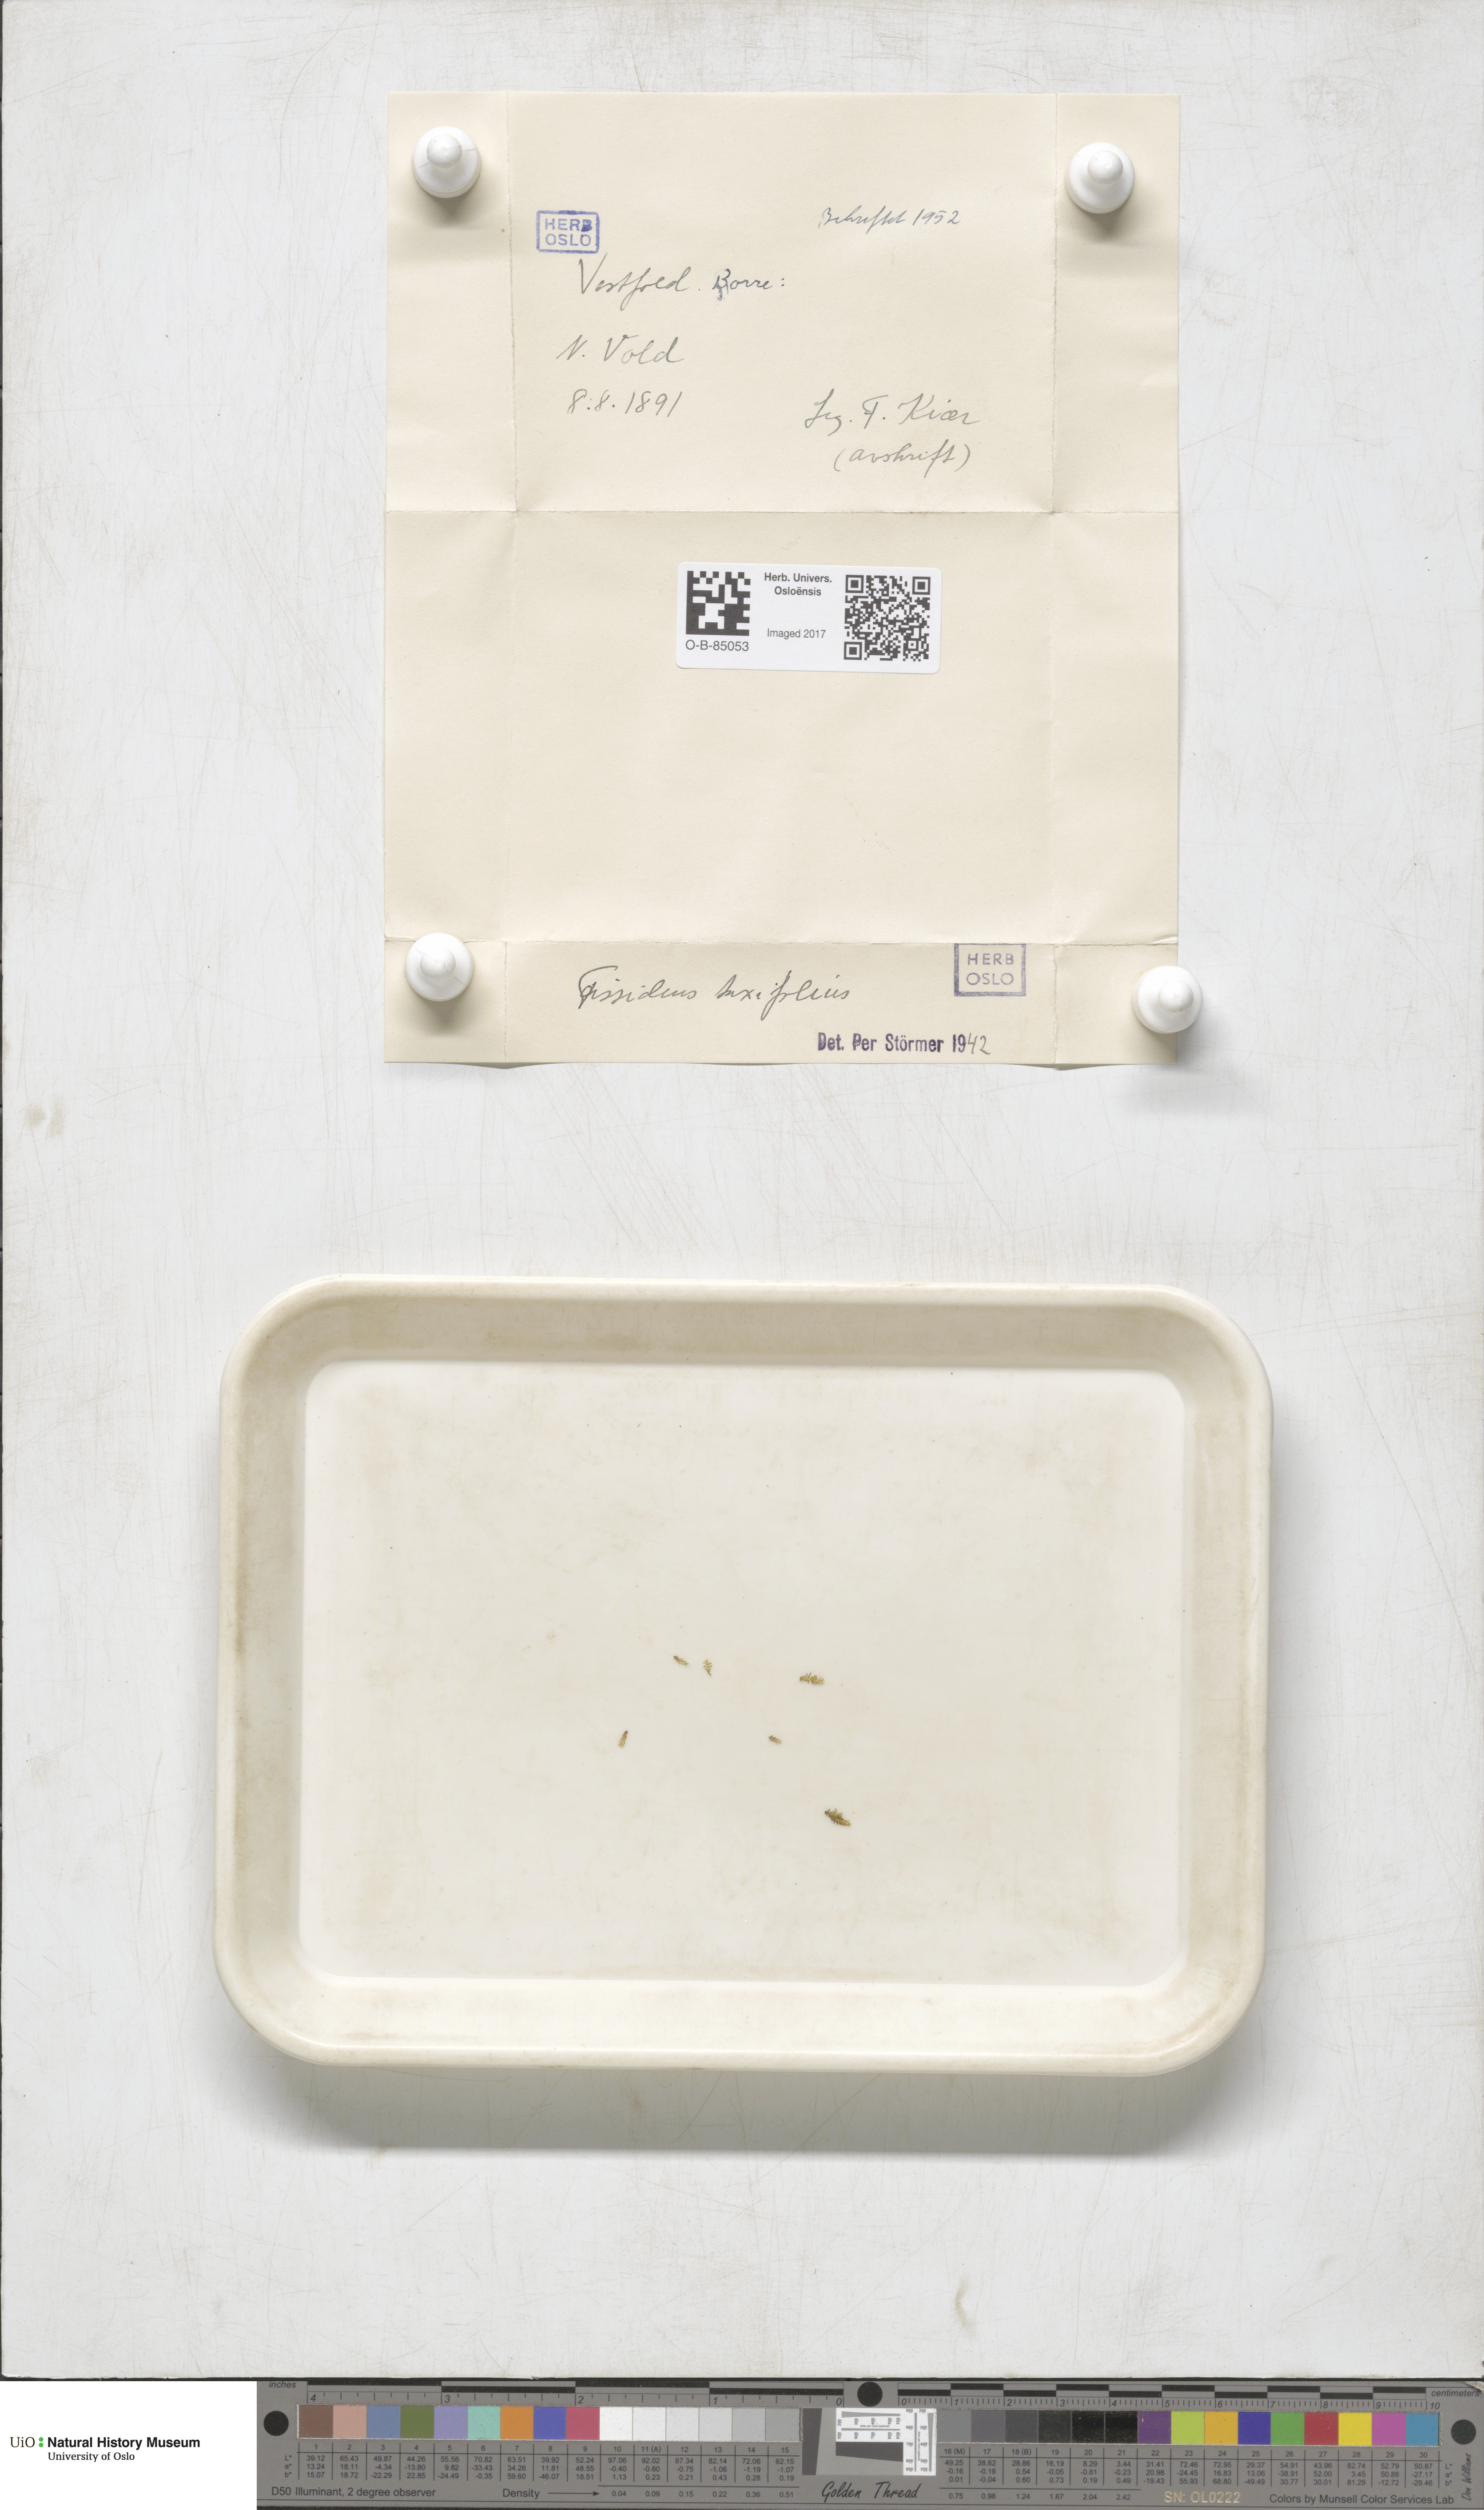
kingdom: Plantae
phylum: Bryophyta
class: Bryopsida
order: Dicranales
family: Fissidentaceae
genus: Fissidens
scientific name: Fissidens taxifolius
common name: Yew-leaved pocket moss
